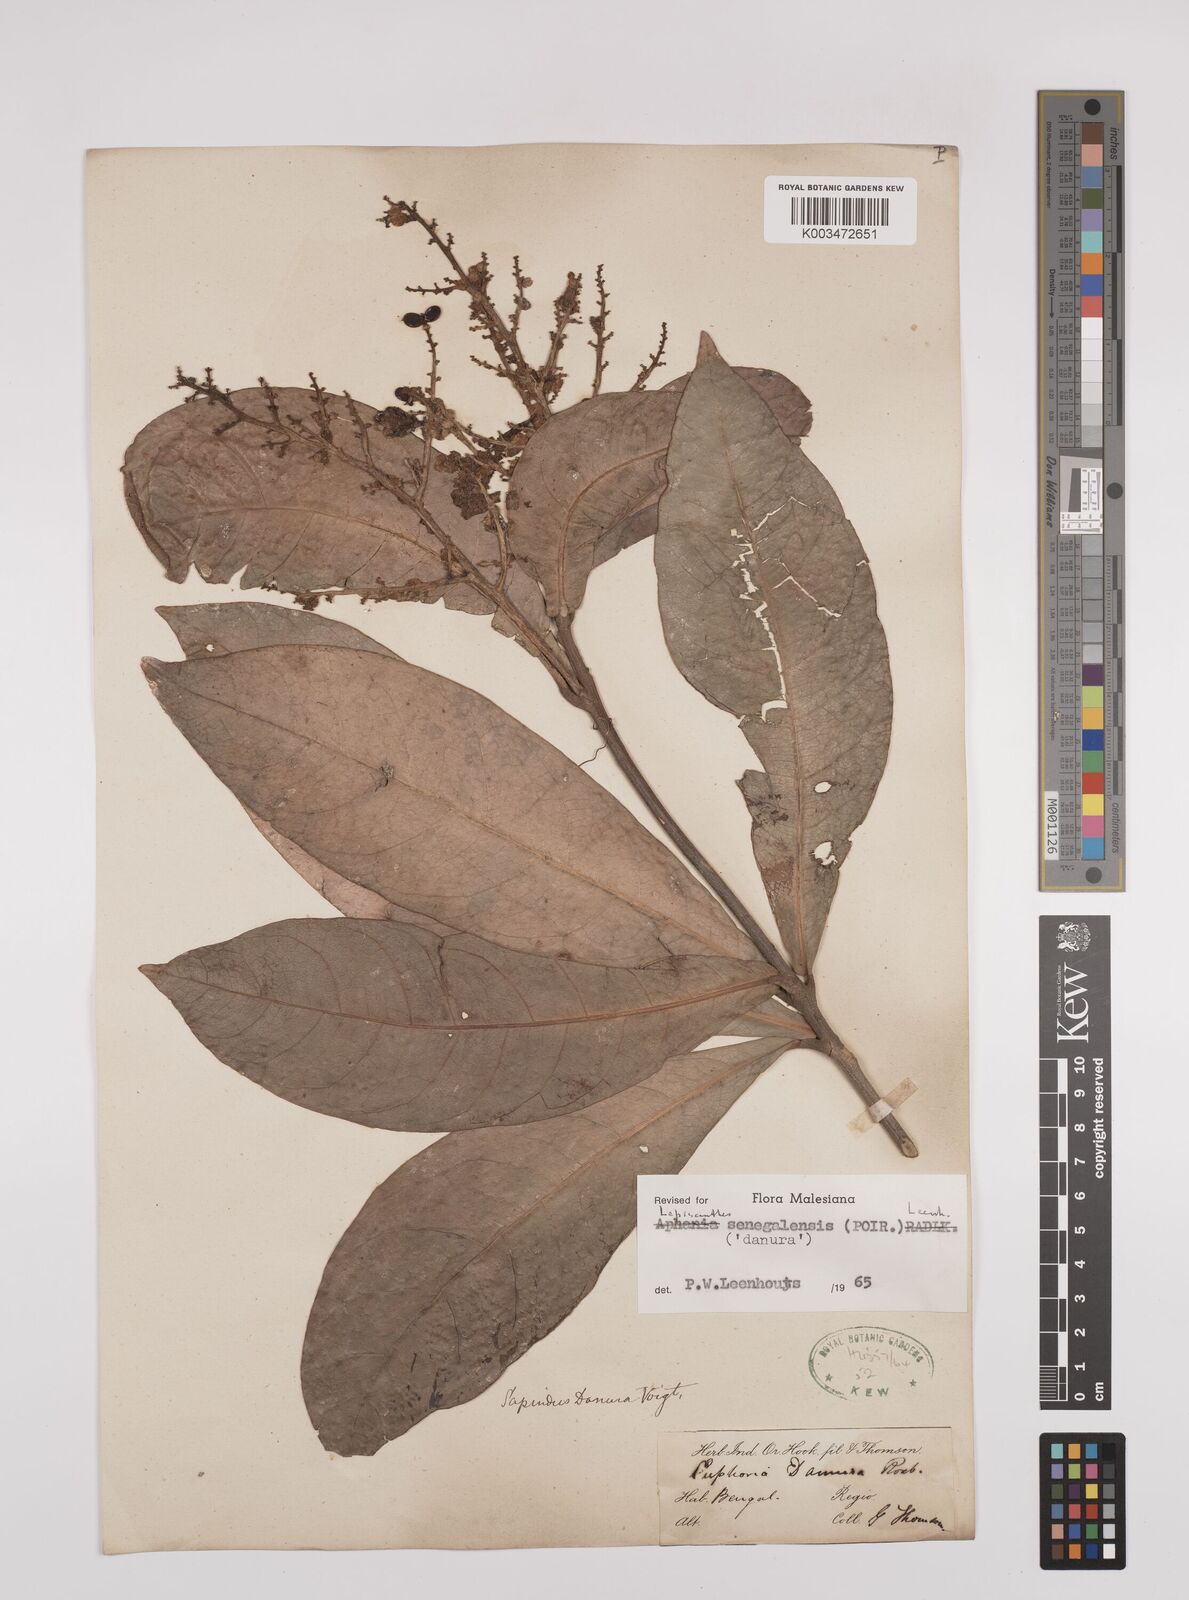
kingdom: Plantae
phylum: Tracheophyta
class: Magnoliopsida
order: Sapindales
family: Sapindaceae
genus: Lepisanthes
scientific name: Lepisanthes senegalensis
